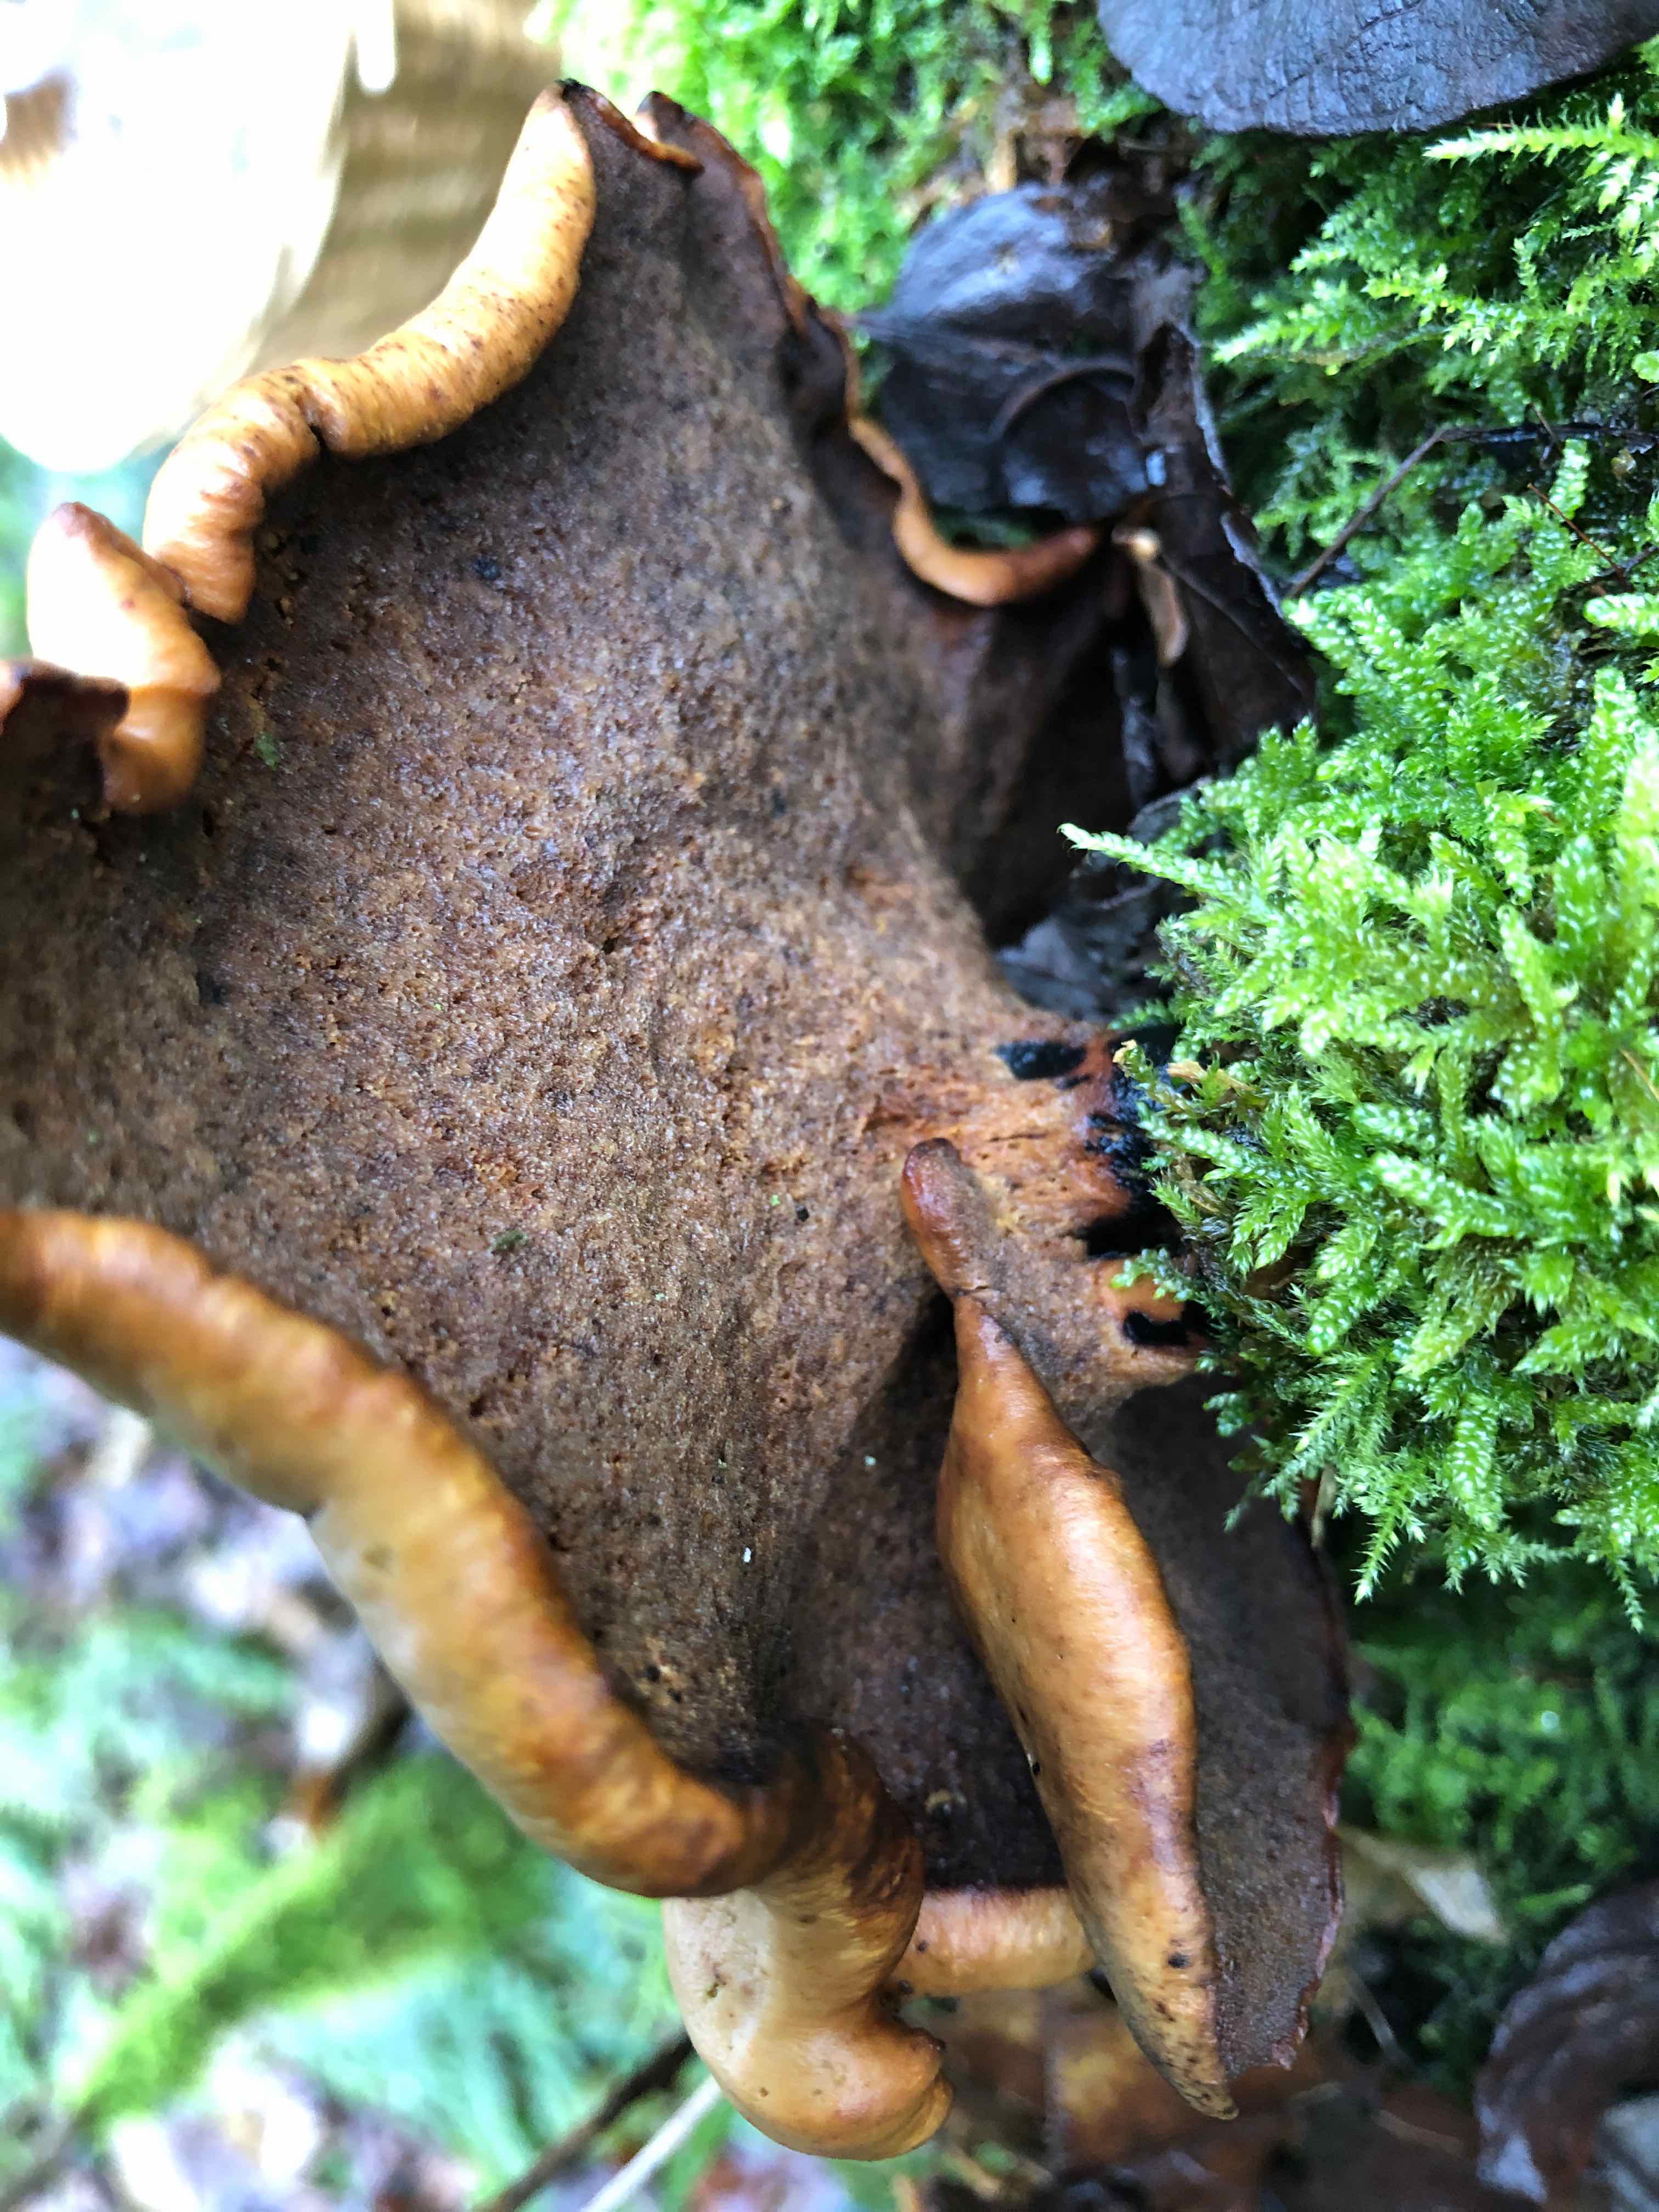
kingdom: Fungi
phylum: Basidiomycota
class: Agaricomycetes
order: Polyporales
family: Polyporaceae
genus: Cerioporus
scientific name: Cerioporus varius
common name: foranderlig stilkporesvamp
